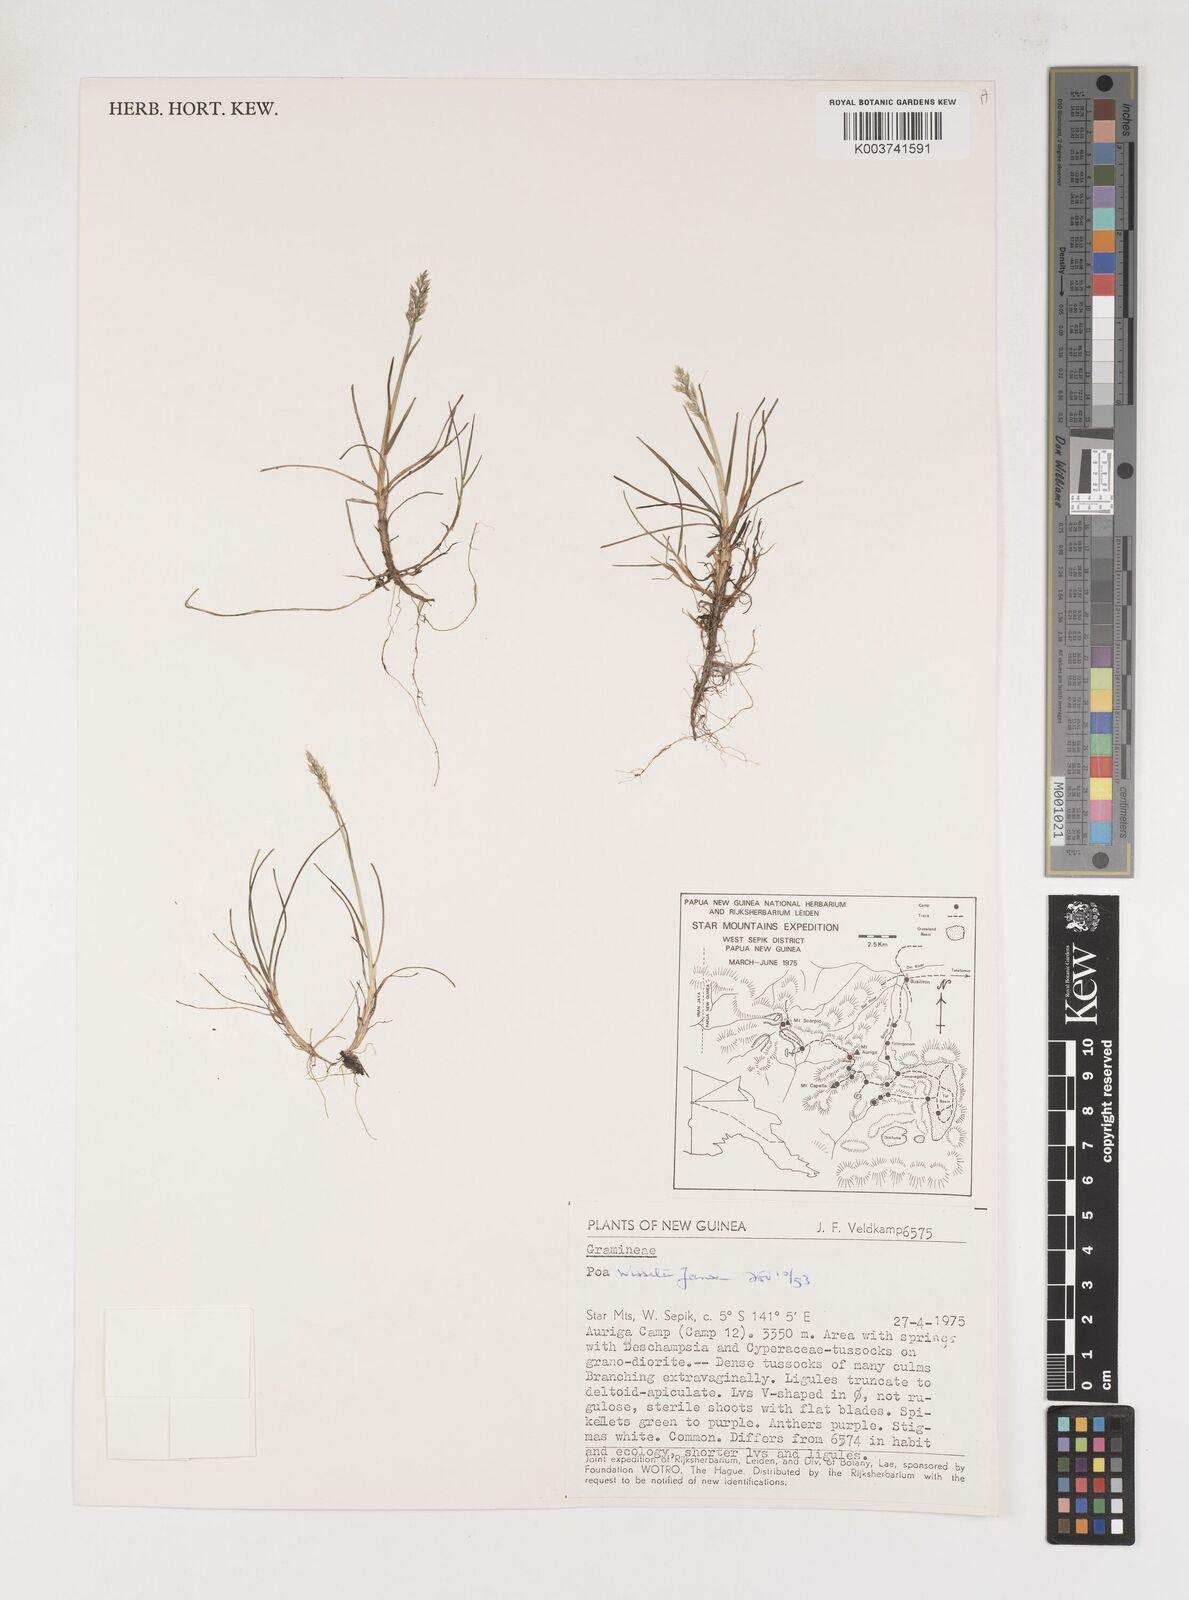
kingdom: Plantae
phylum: Tracheophyta
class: Liliopsida
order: Poales
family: Poaceae
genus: Poa
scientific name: Poa wisselii
